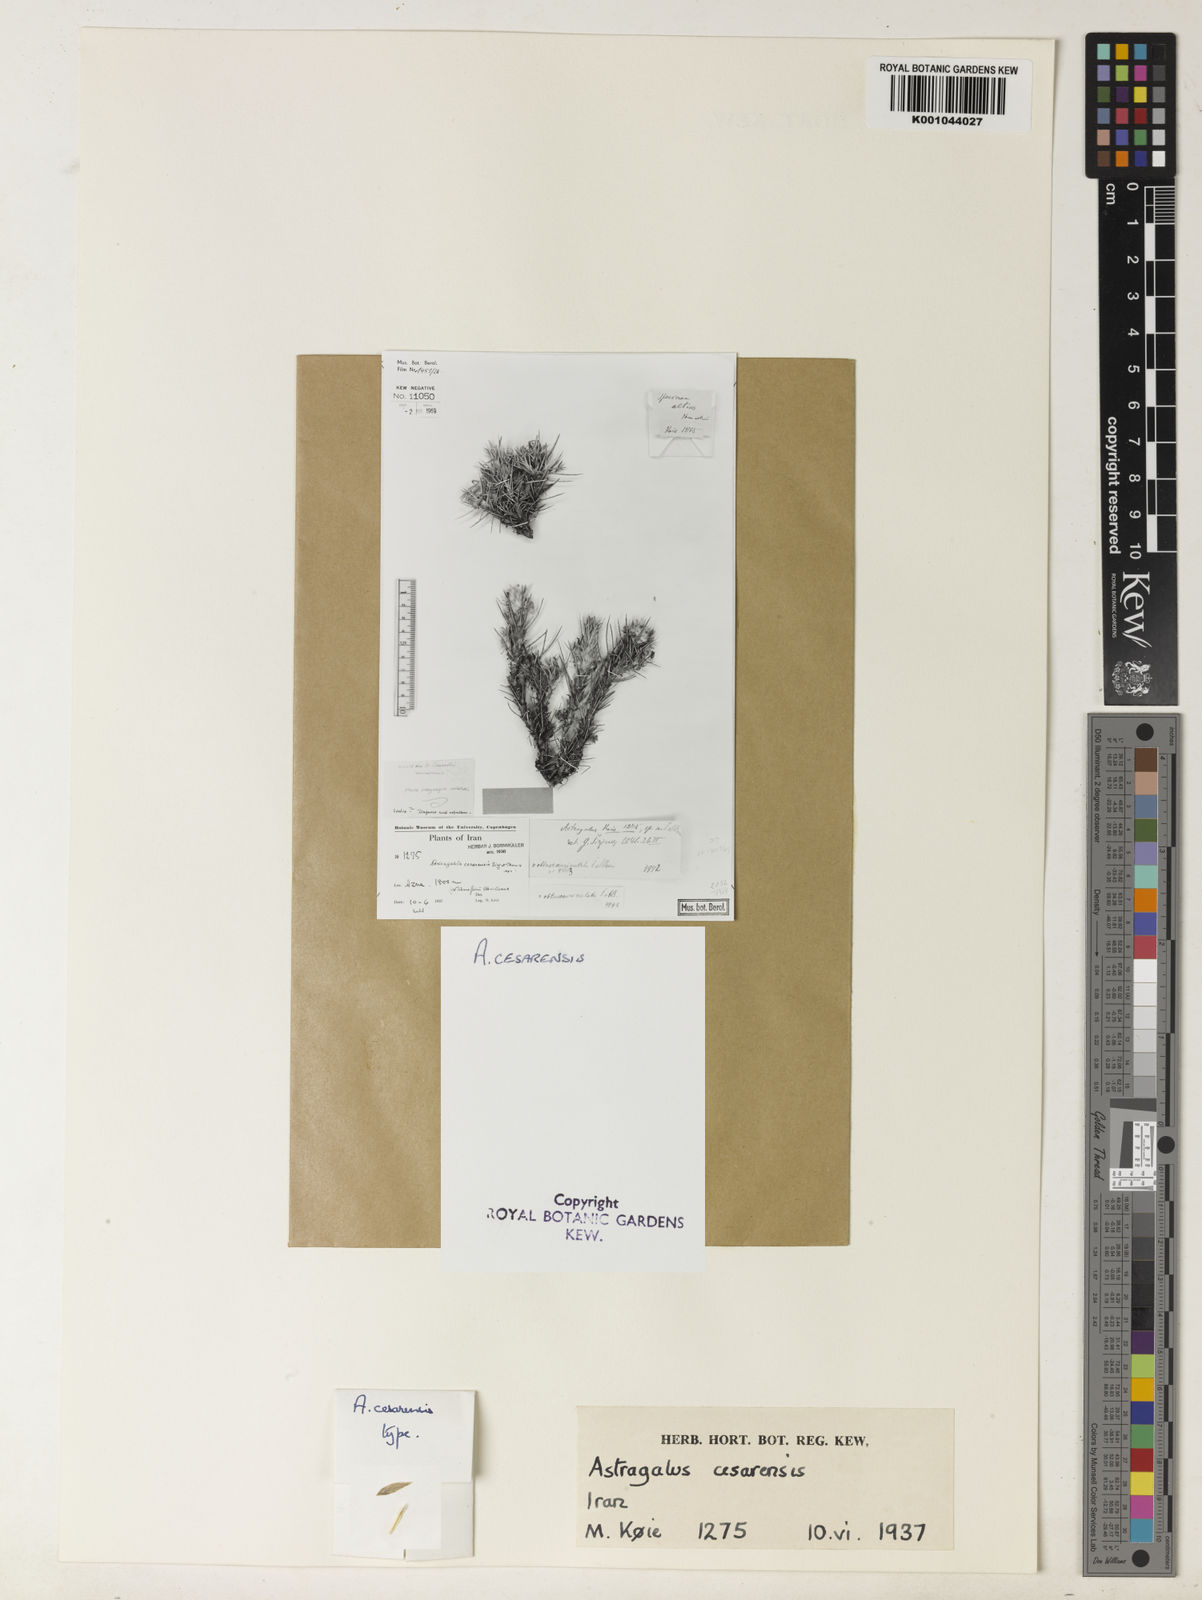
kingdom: Plantae
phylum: Tracheophyta
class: Magnoliopsida
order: Fabales
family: Fabaceae
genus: Astragalus
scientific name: Astragalus trachyacanthus
